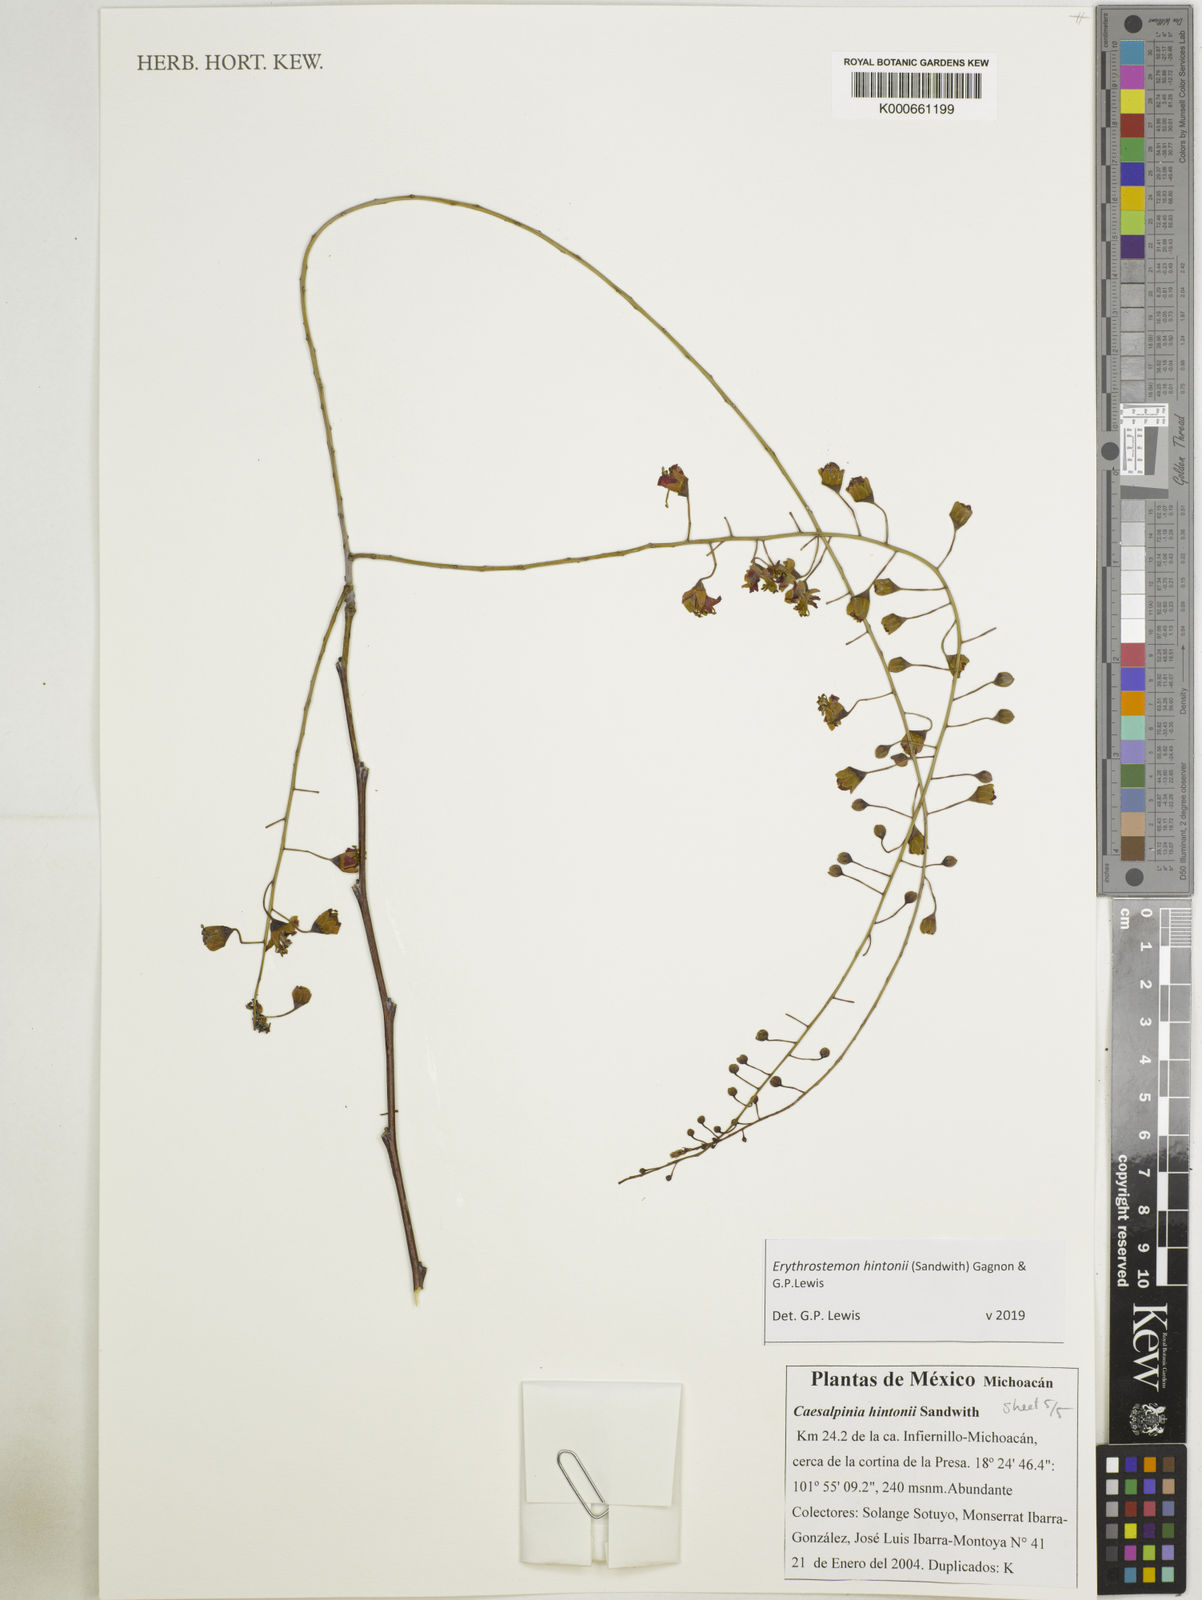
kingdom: Plantae
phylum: Tracheophyta
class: Magnoliopsida
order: Fabales
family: Fabaceae
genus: Erythrostemon
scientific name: Erythrostemon hintonii
